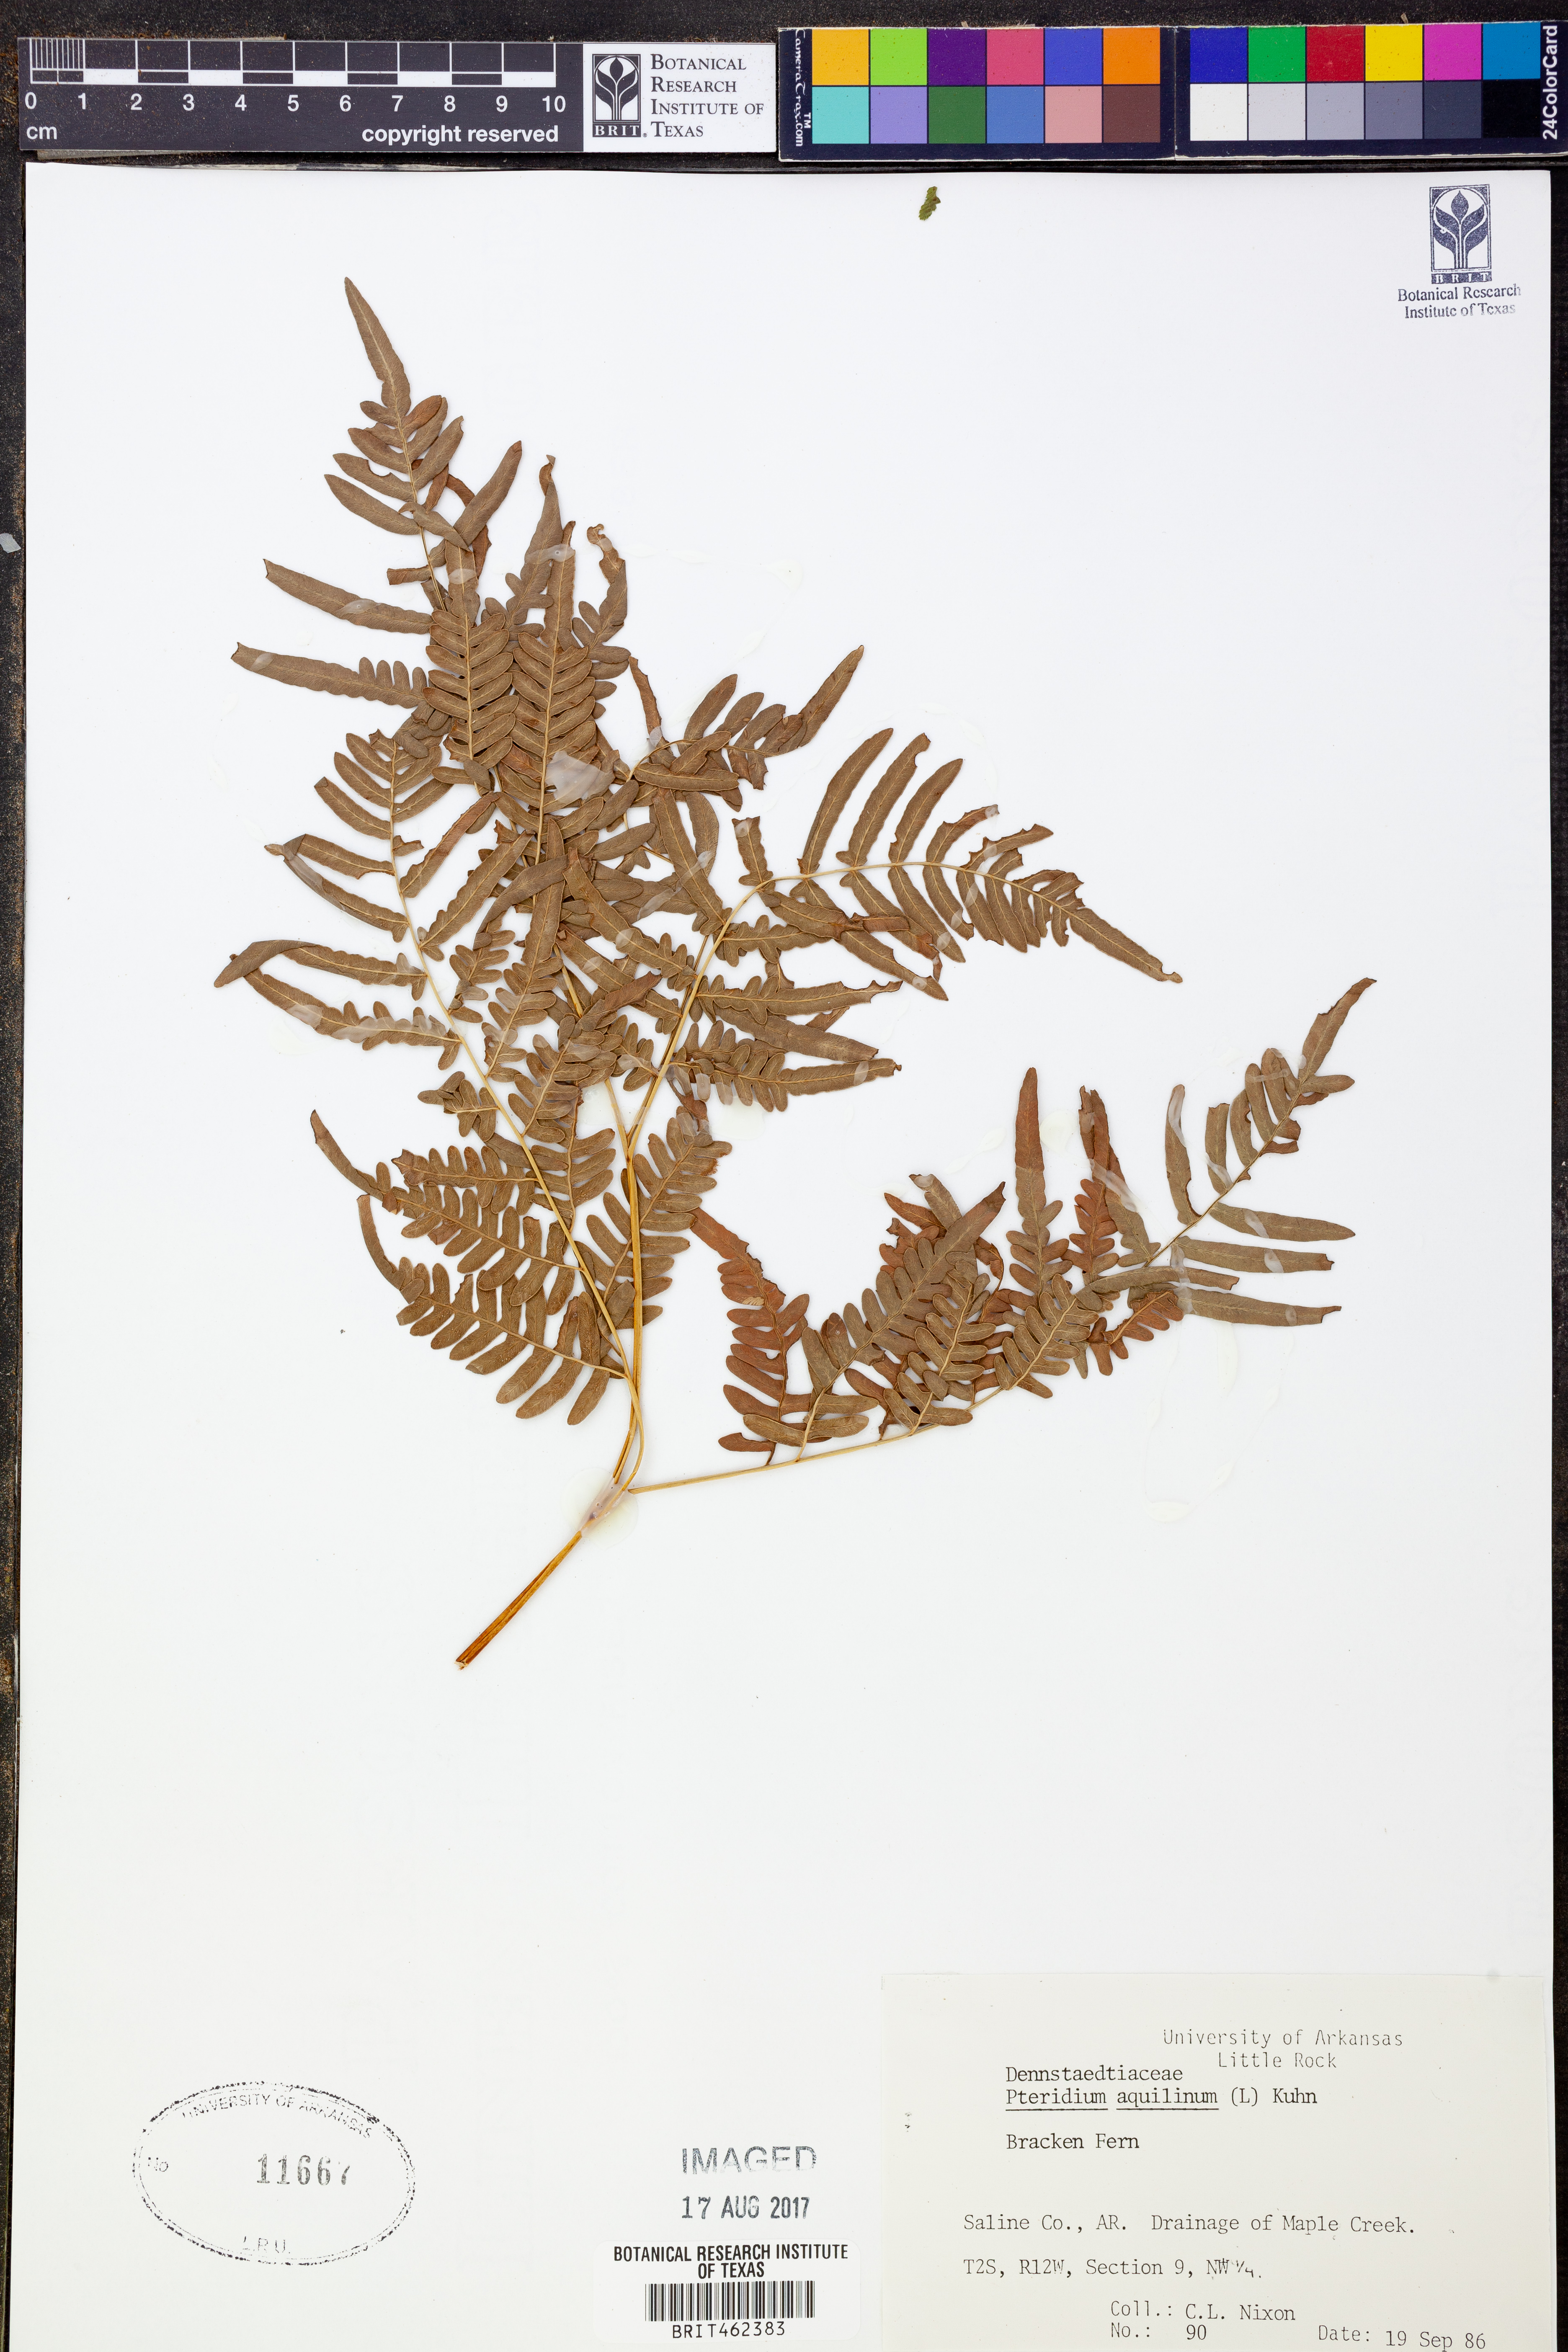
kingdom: Plantae
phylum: Tracheophyta
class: Polypodiopsida
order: Polypodiales
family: Dennstaedtiaceae
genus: Pteridium
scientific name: Pteridium aquilinum
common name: Bracken
